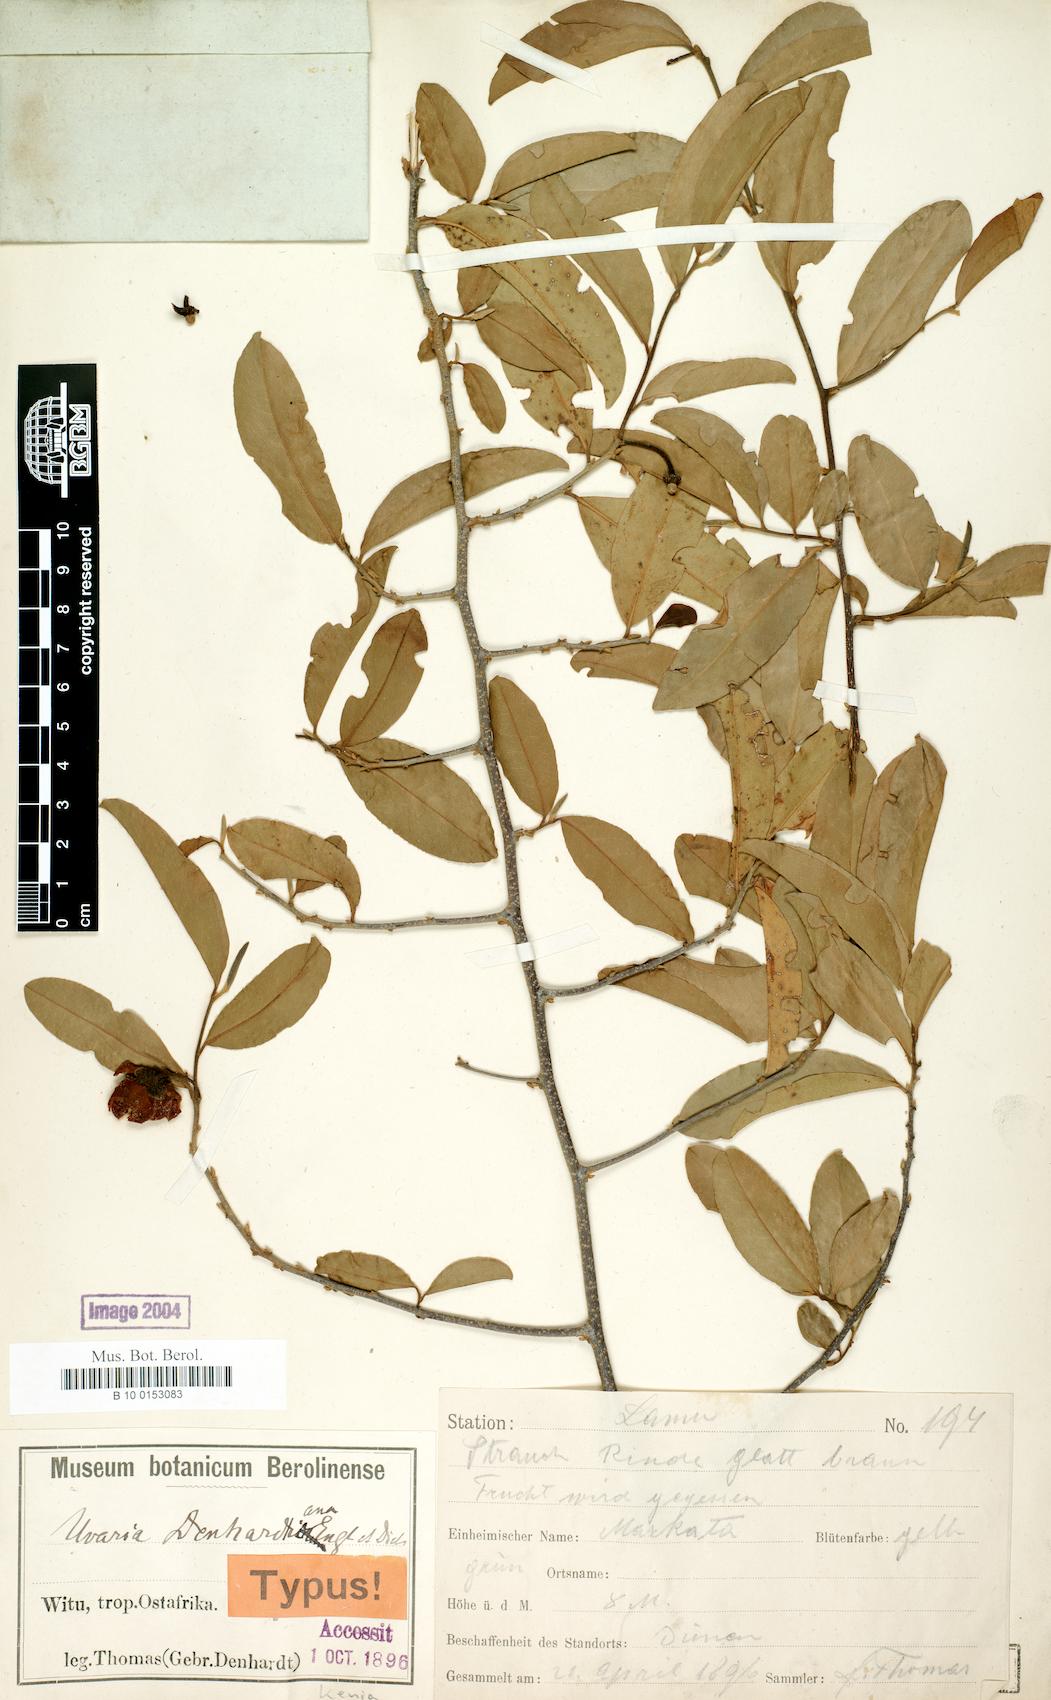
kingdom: Plantae
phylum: Tracheophyta
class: Magnoliopsida
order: Magnoliales
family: Annonaceae
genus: Uvaria
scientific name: Uvaria denhardtiana
